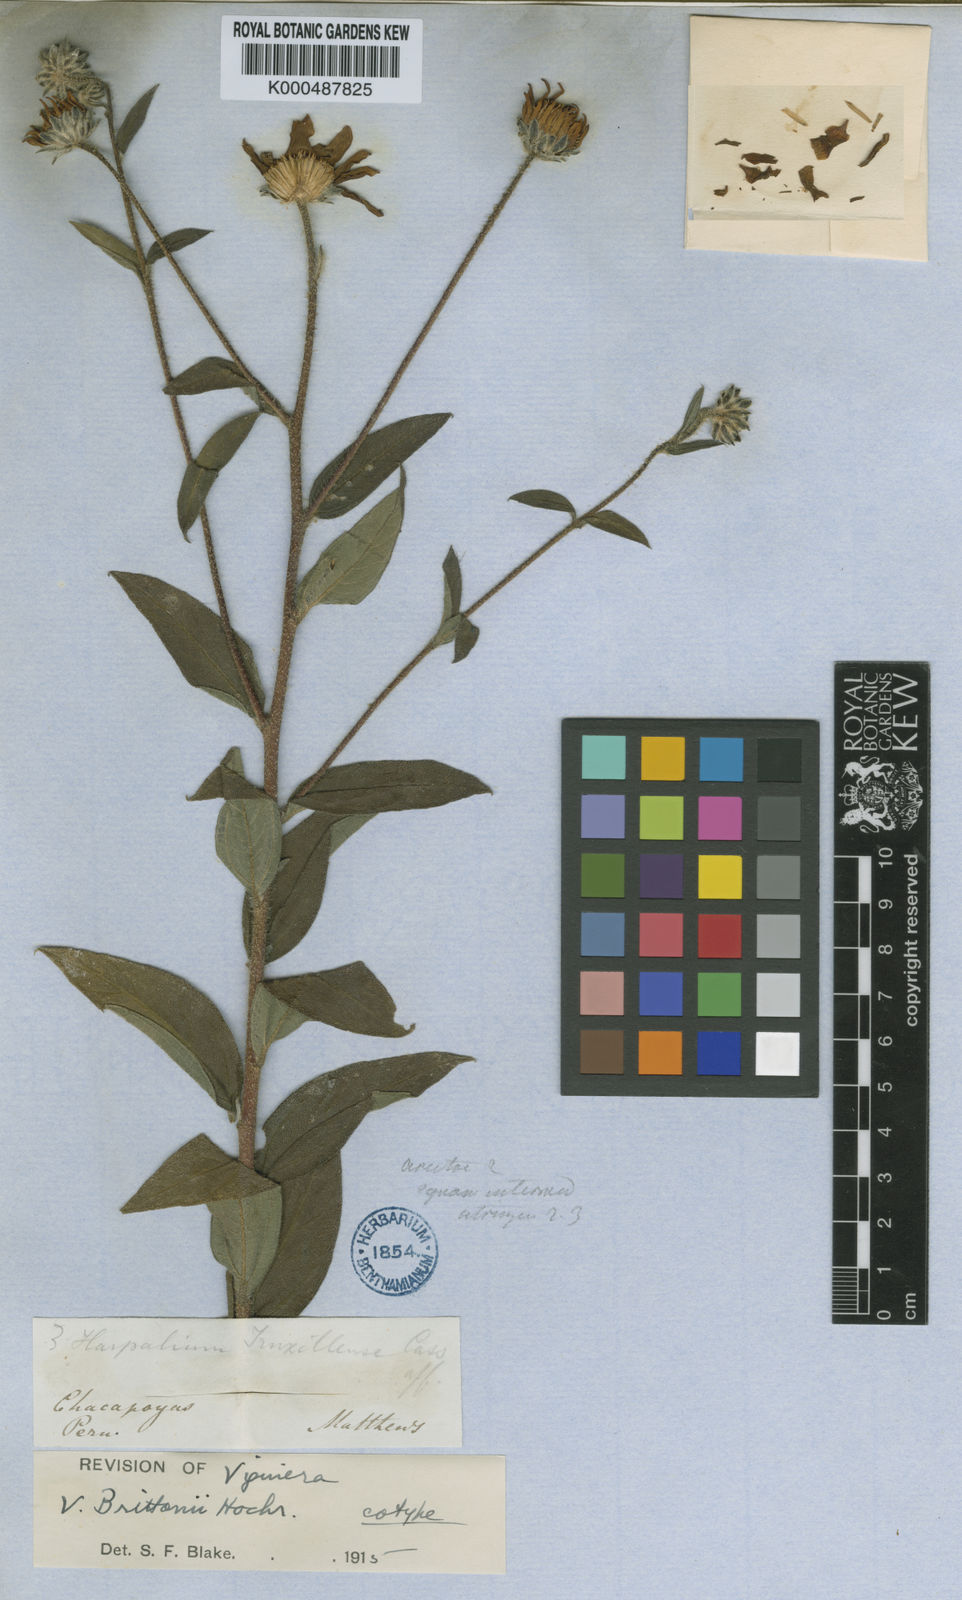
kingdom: Plantae
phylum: Tracheophyta
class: Magnoliopsida
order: Asterales
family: Asteraceae
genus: Aldama
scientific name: Aldama brittonii
